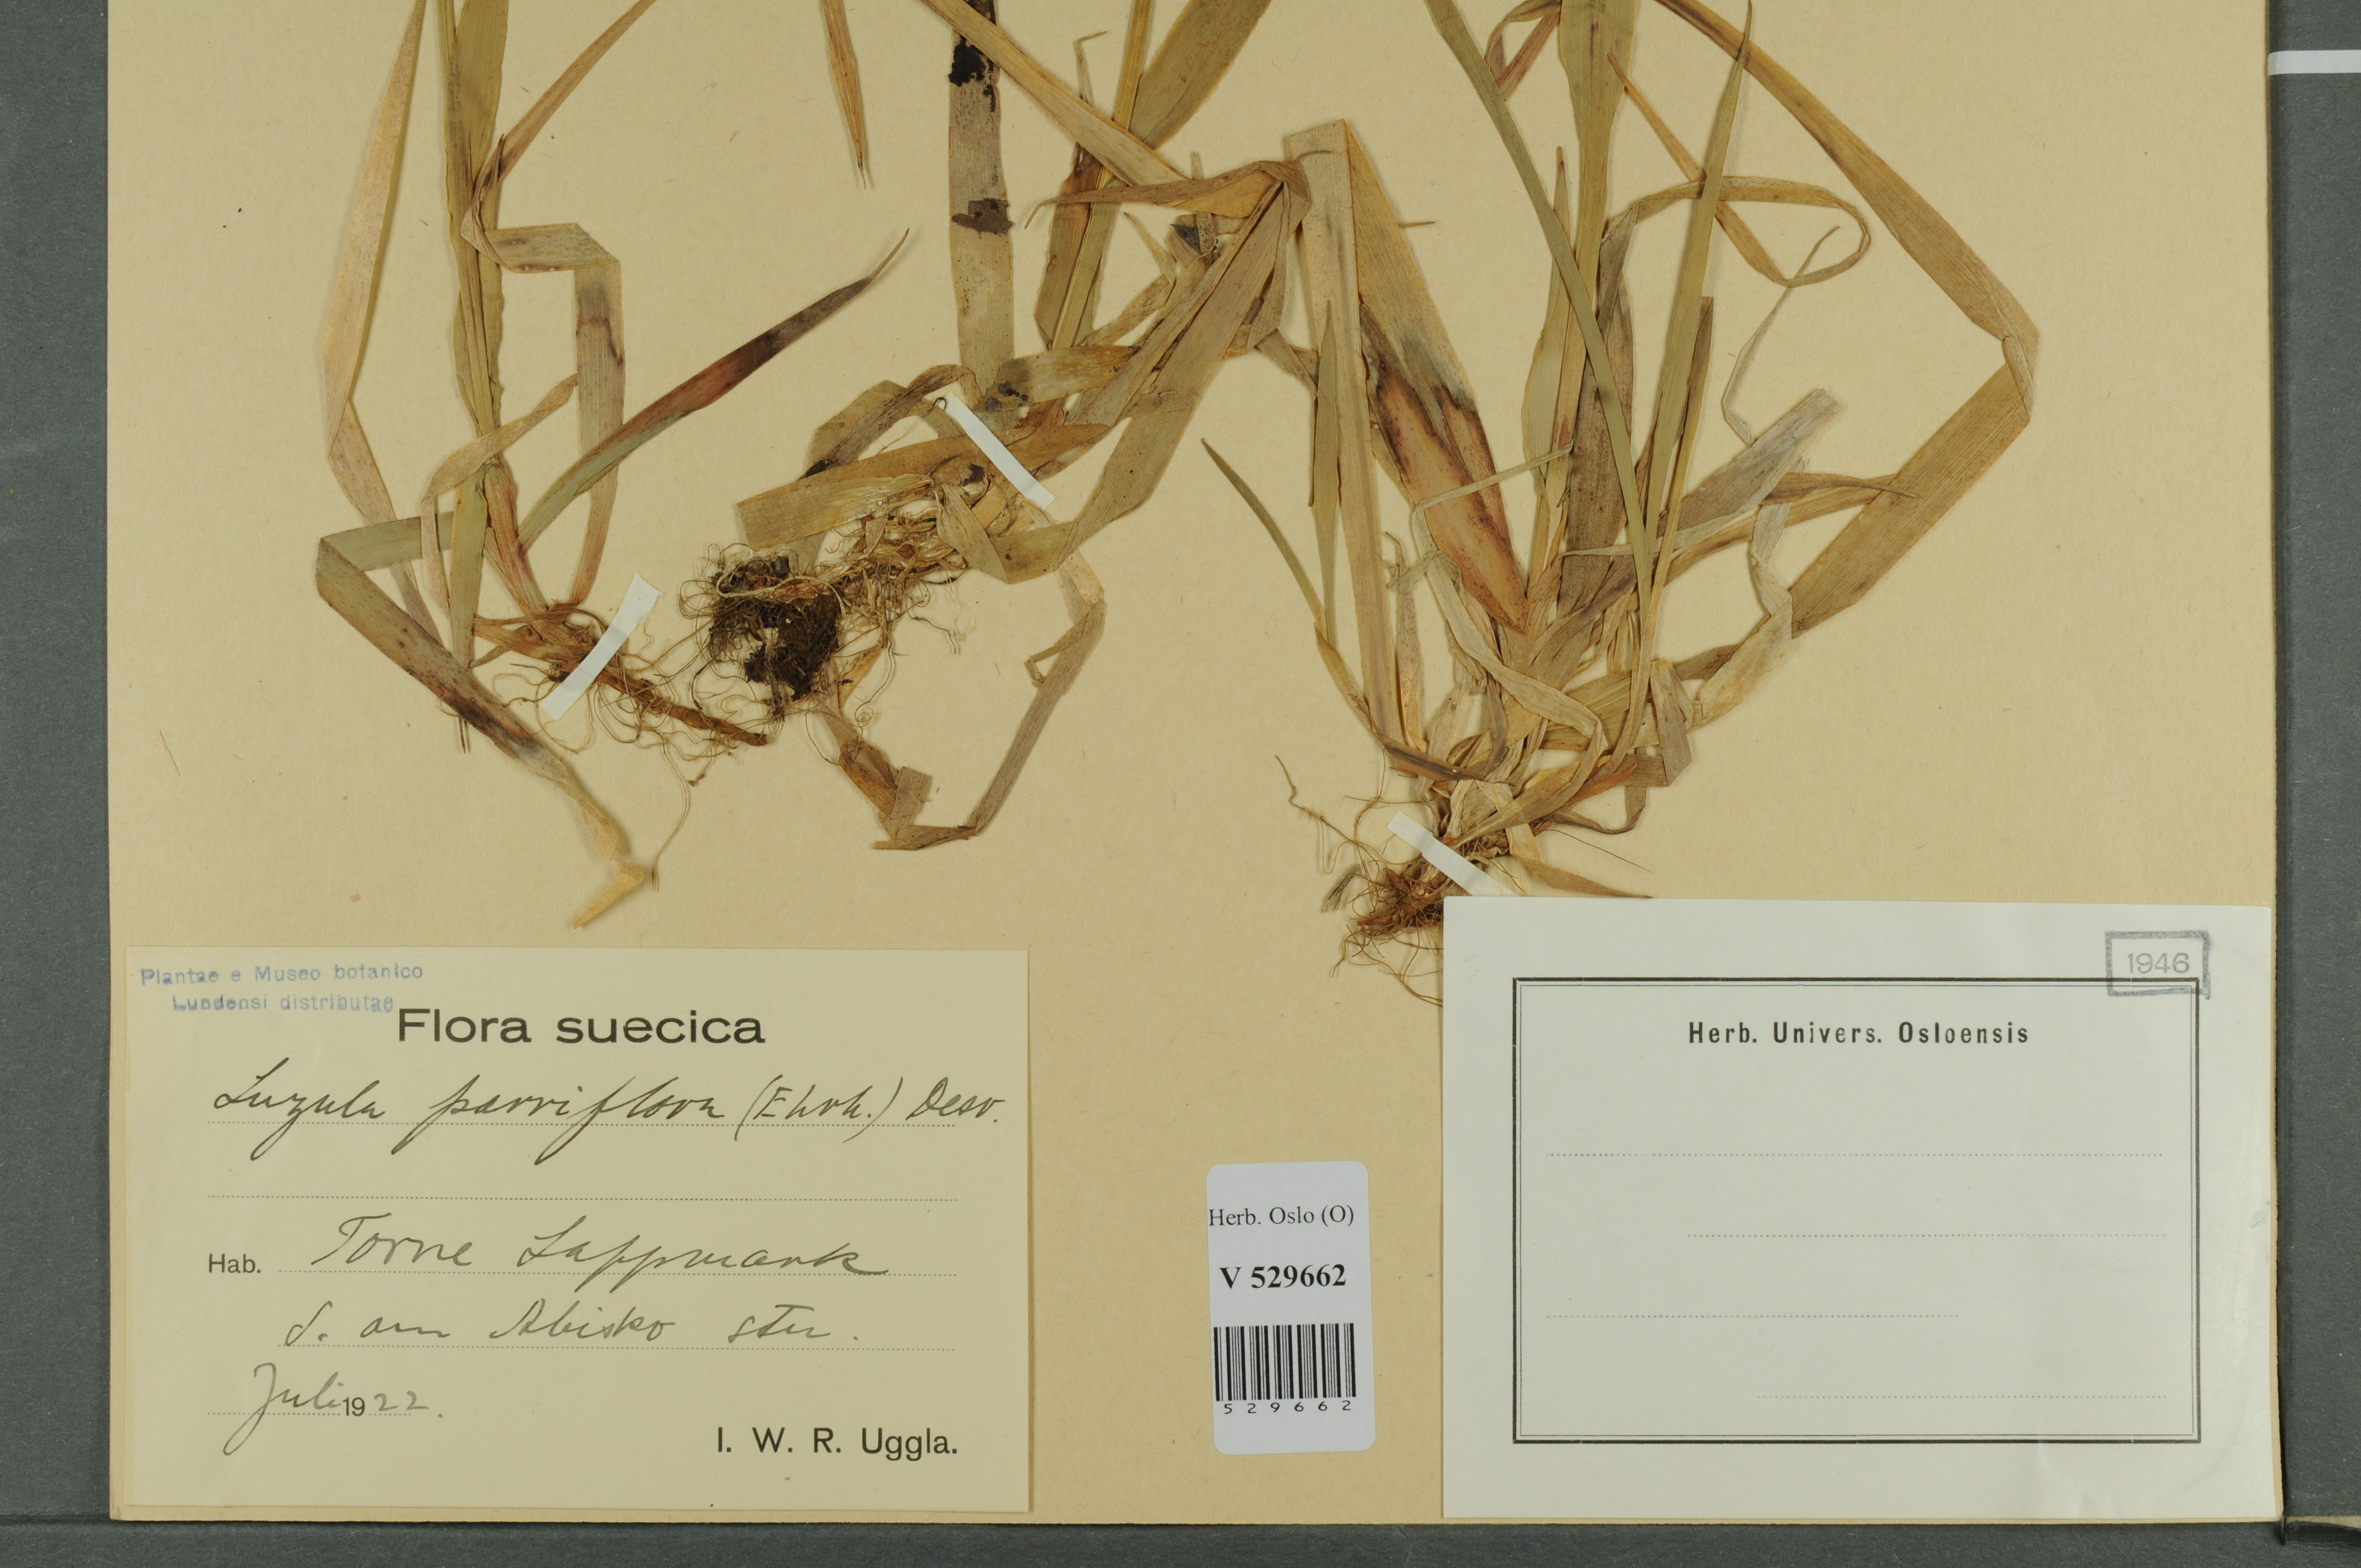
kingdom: Plantae
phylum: Tracheophyta
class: Liliopsida
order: Poales
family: Juncaceae
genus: Luzula
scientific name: Luzula parviflora
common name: Millet woodrush
